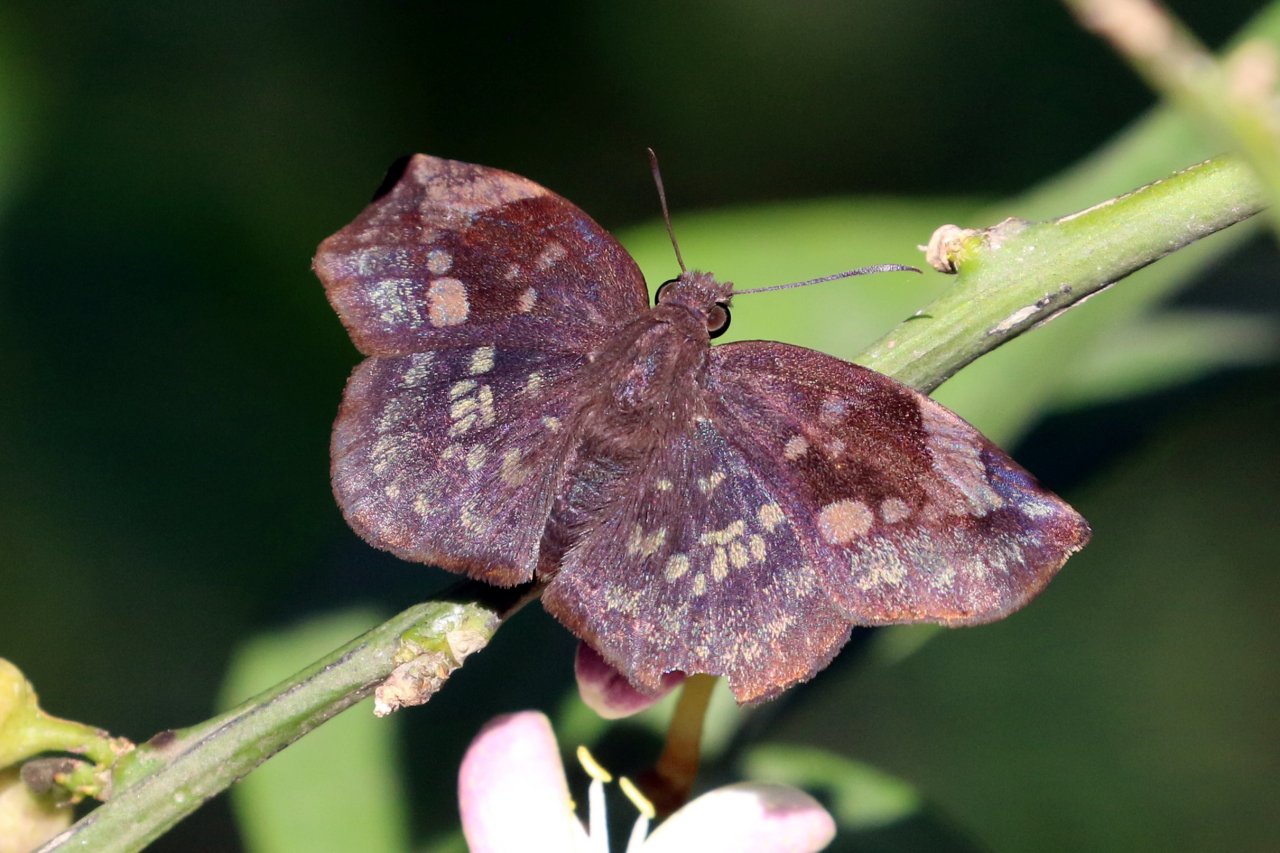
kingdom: Animalia
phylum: Arthropoda
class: Insecta
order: Lepidoptera
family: Hesperiidae
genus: Achlyodes
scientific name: Achlyodes thraso
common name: Sickle-winged Skipper
